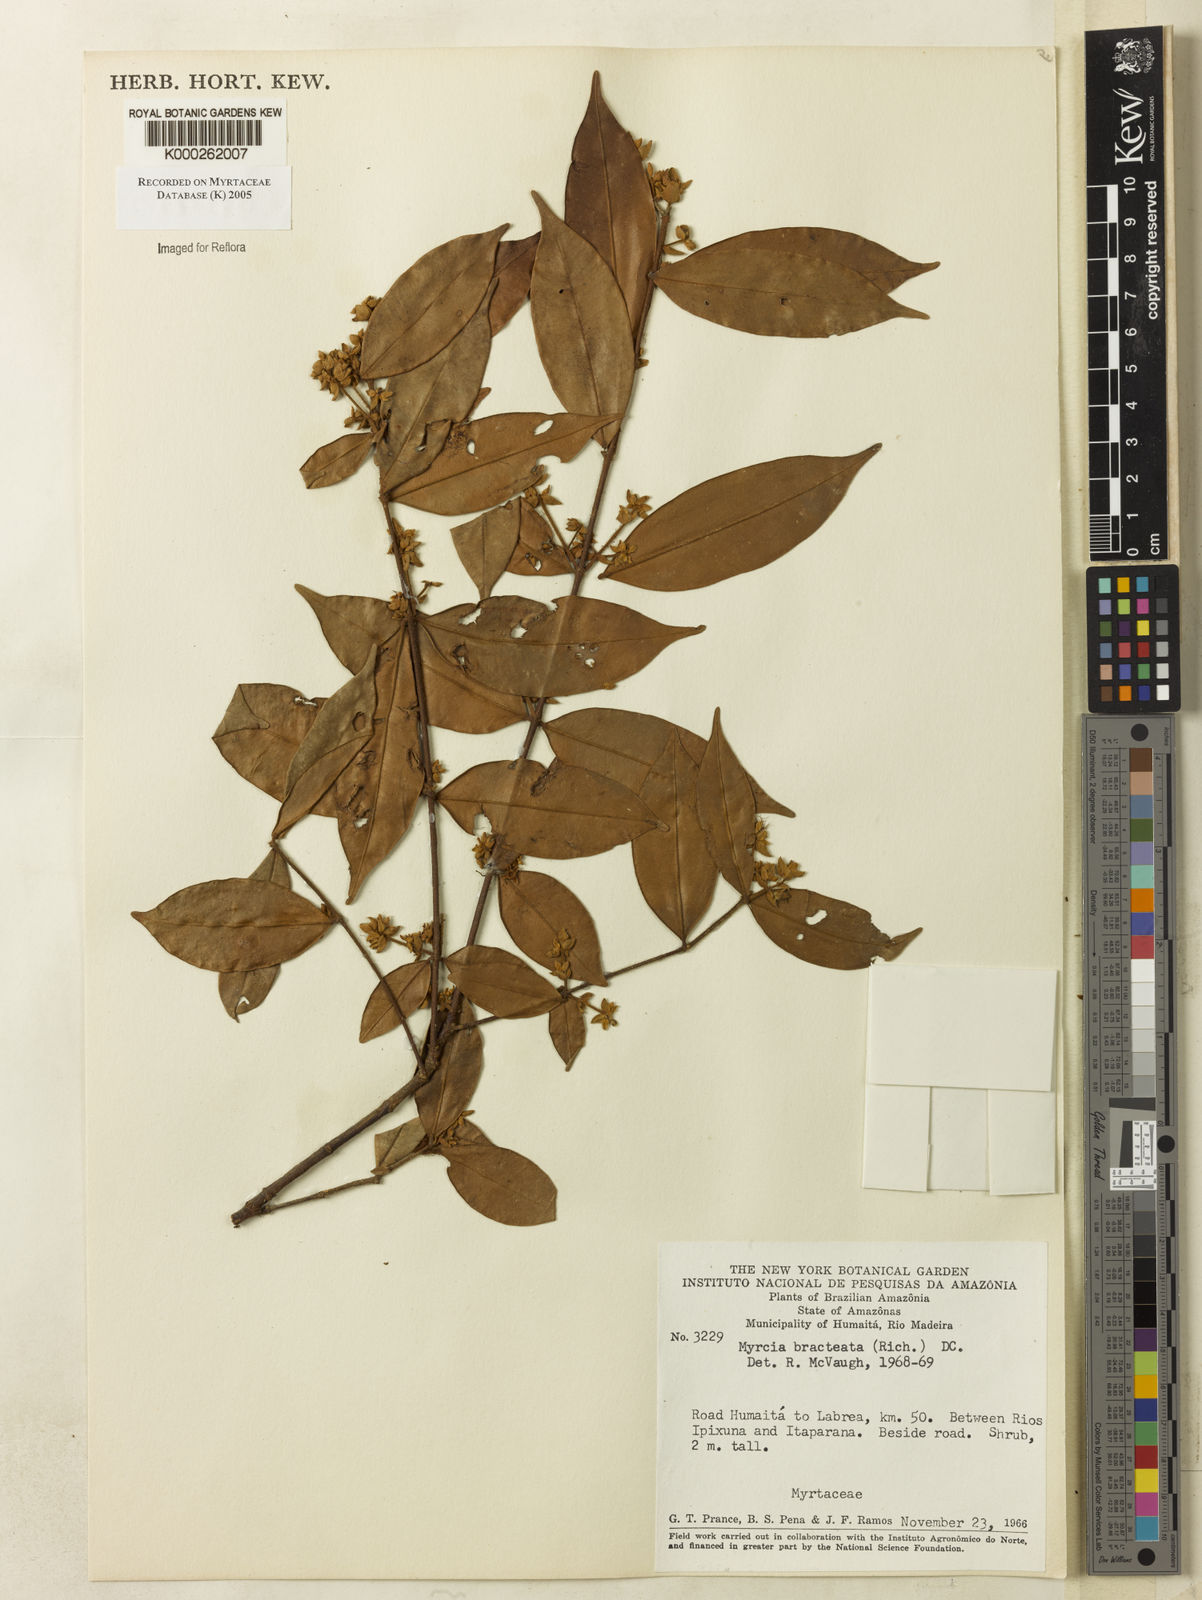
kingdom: Plantae
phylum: Tracheophyta
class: Magnoliopsida
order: Myrtales
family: Myrtaceae
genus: Myrcia
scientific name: Myrcia bracteata
